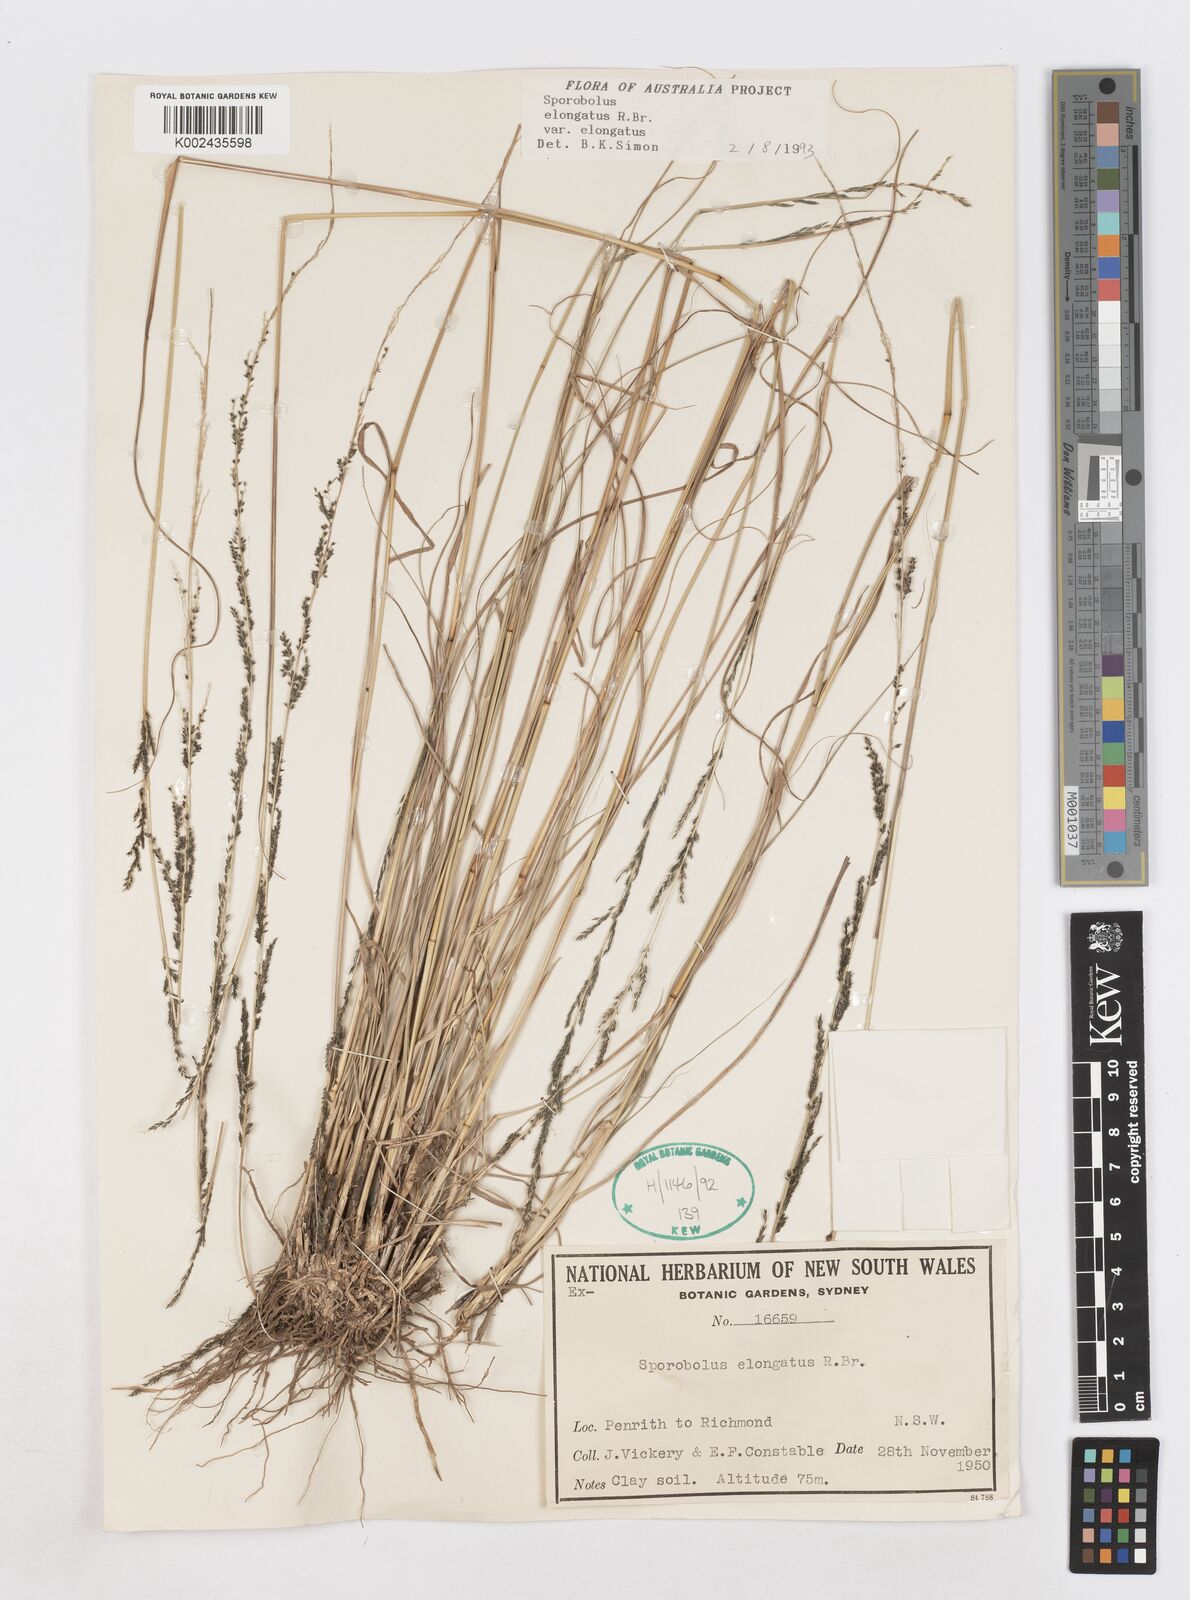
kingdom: Plantae
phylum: Tracheophyta
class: Liliopsida
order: Poales
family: Poaceae
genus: Sporobolus
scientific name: Sporobolus elongatus
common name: Rat tail grass
